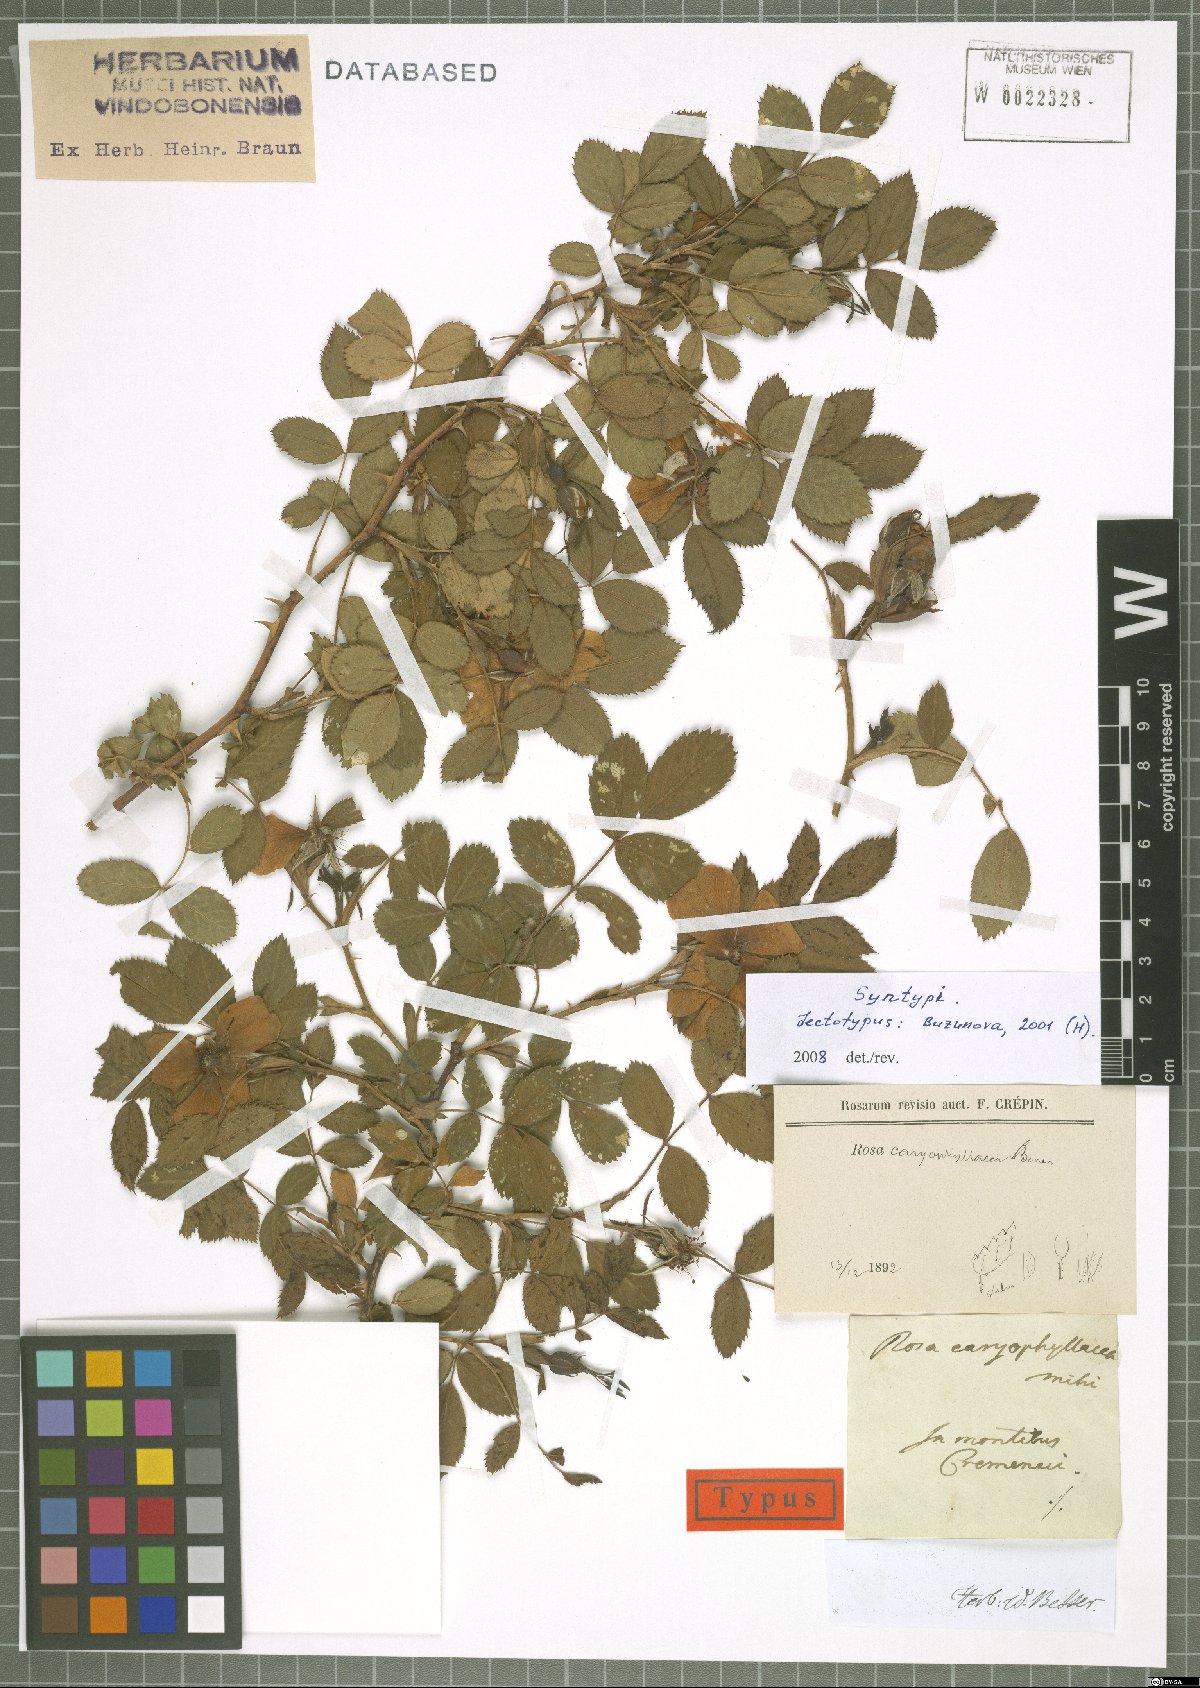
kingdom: Plantae
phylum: Tracheophyta
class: Magnoliopsida
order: Rosales
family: Rosaceae
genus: Rosa
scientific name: Rosa caryophyllacea
